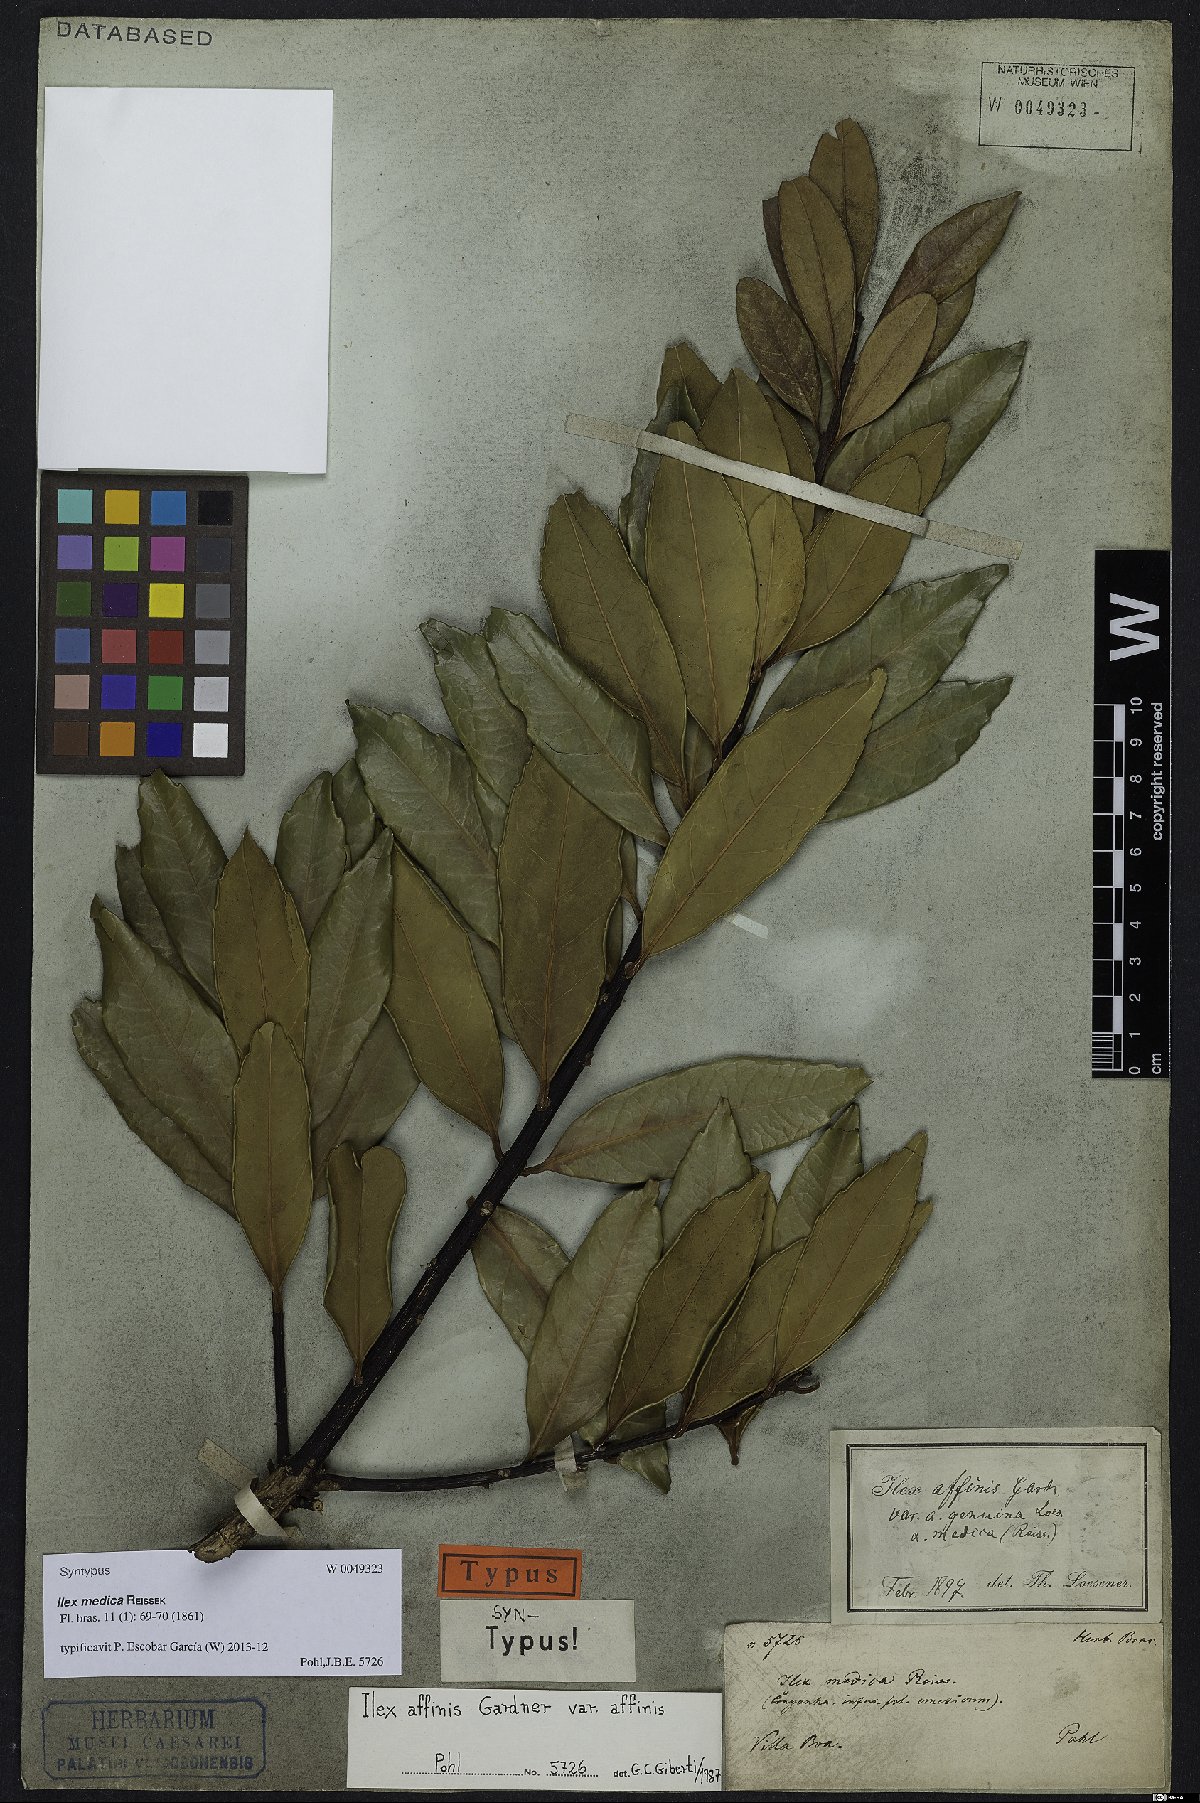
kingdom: Plantae
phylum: Tracheophyta
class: Magnoliopsida
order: Aquifoliales
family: Aquifoliaceae
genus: Ilex
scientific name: Ilex affinis
